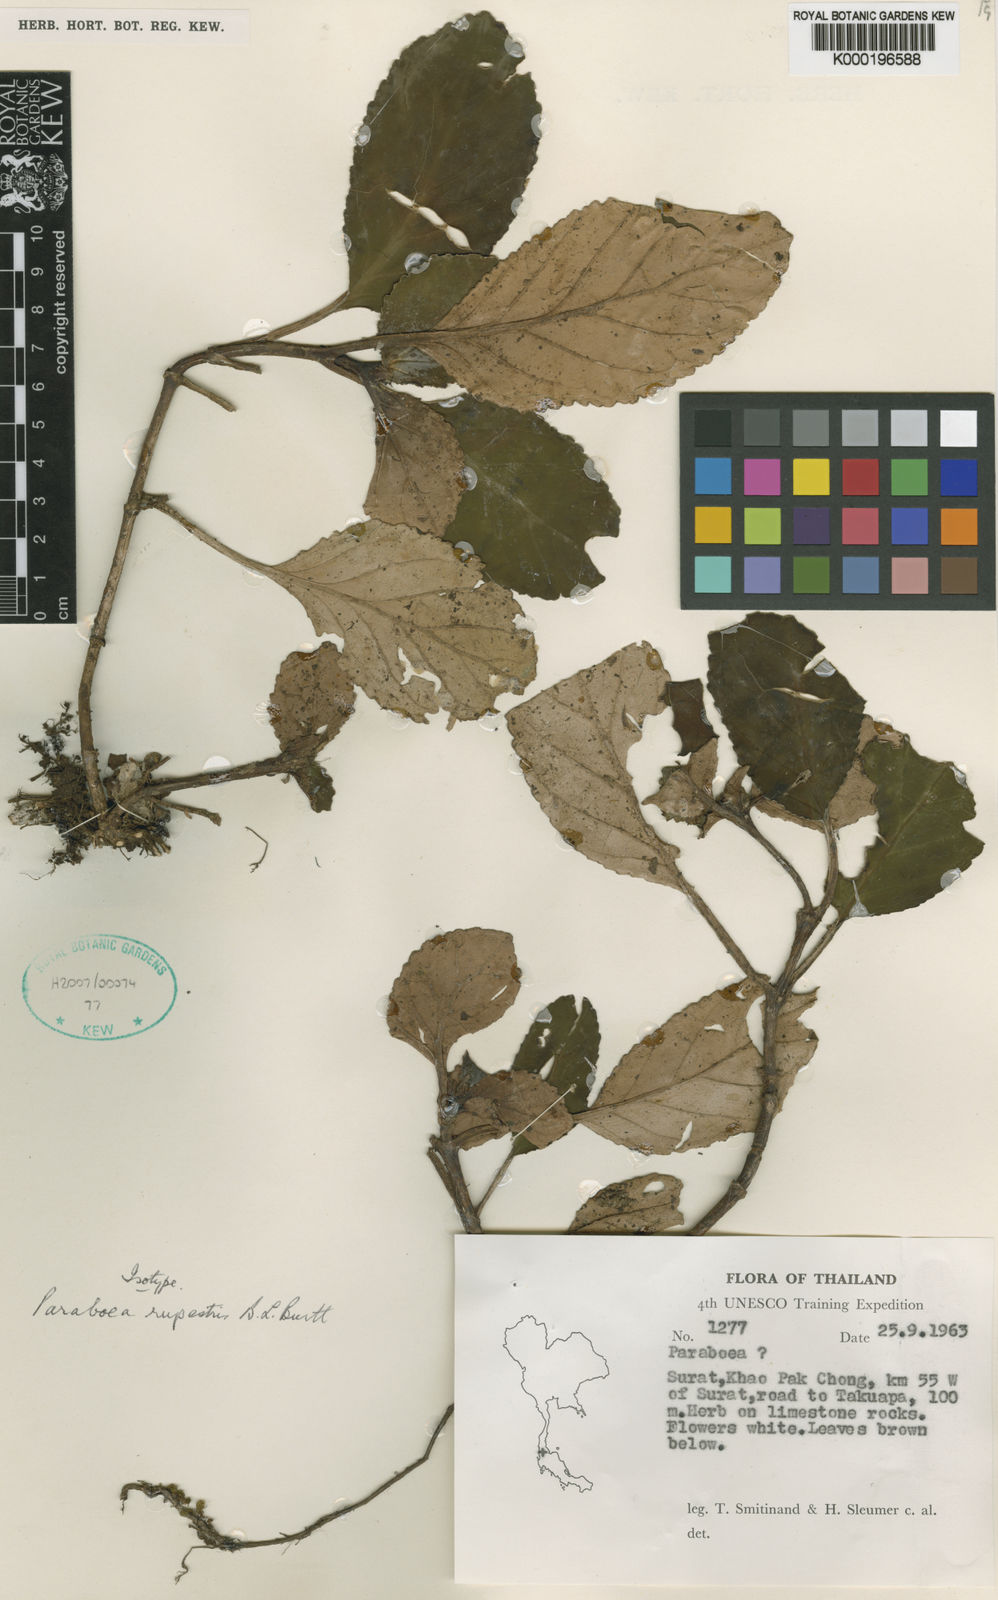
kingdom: Plantae
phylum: Tracheophyta
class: Magnoliopsida
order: Lamiales
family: Gesneriaceae
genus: Paraboea
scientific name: Paraboea glabra
